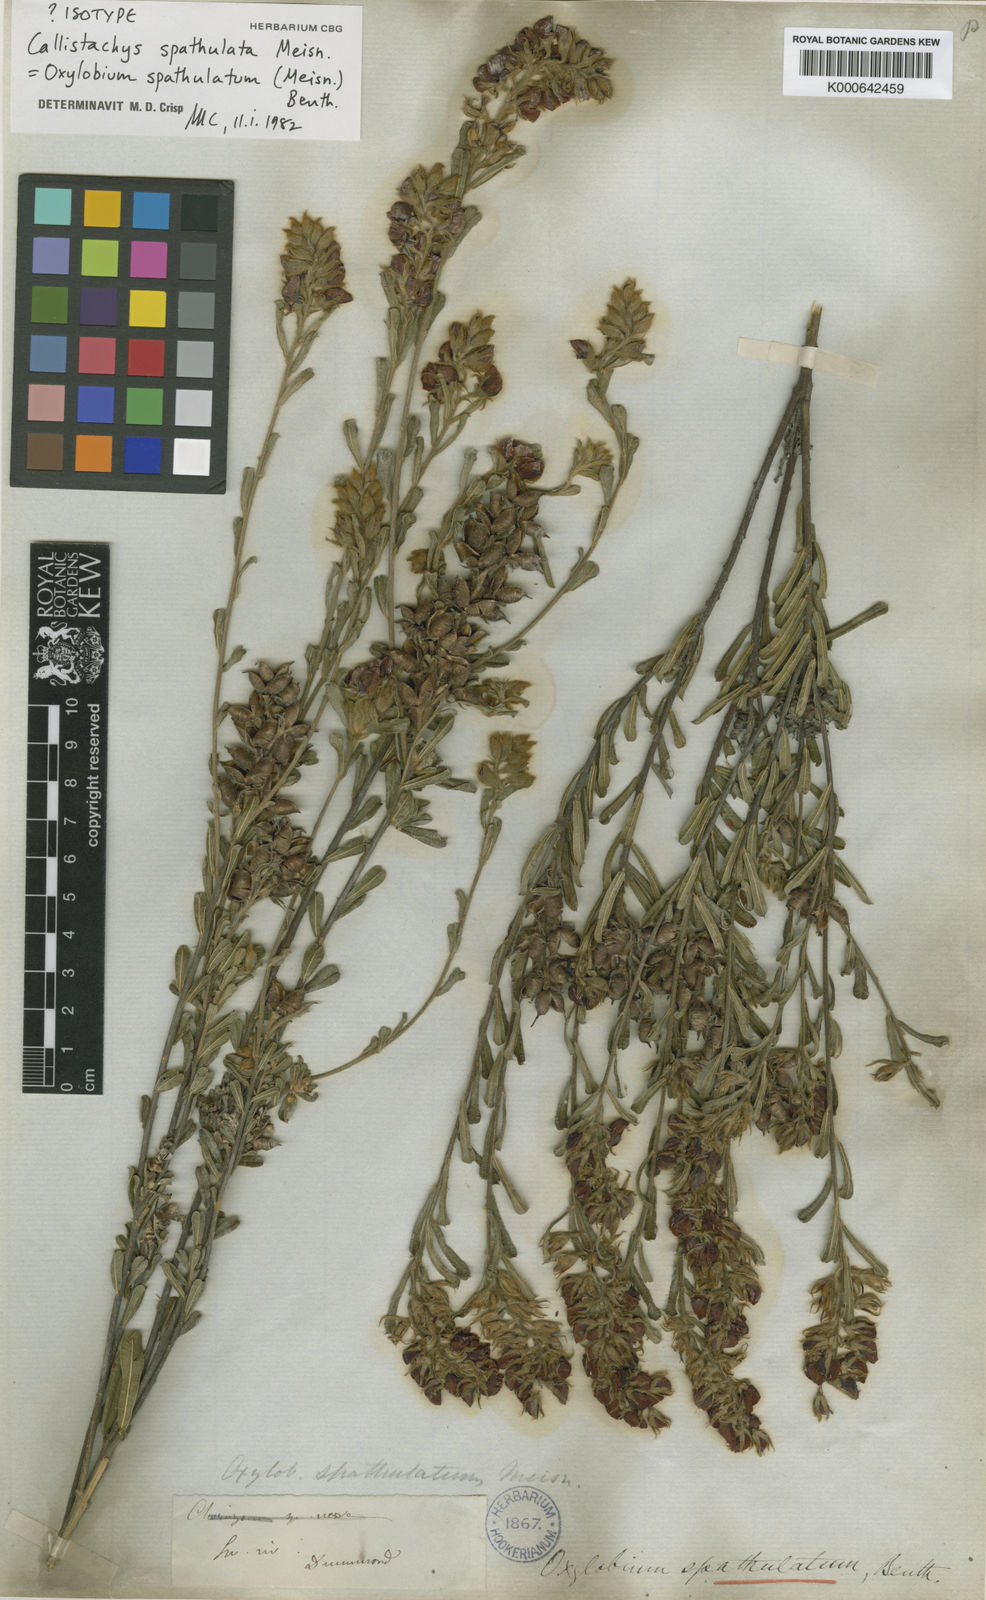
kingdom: Plantae
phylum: Tracheophyta
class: Magnoliopsida
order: Fabales
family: Fabaceae
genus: Chorizema
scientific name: Chorizema carinatum
